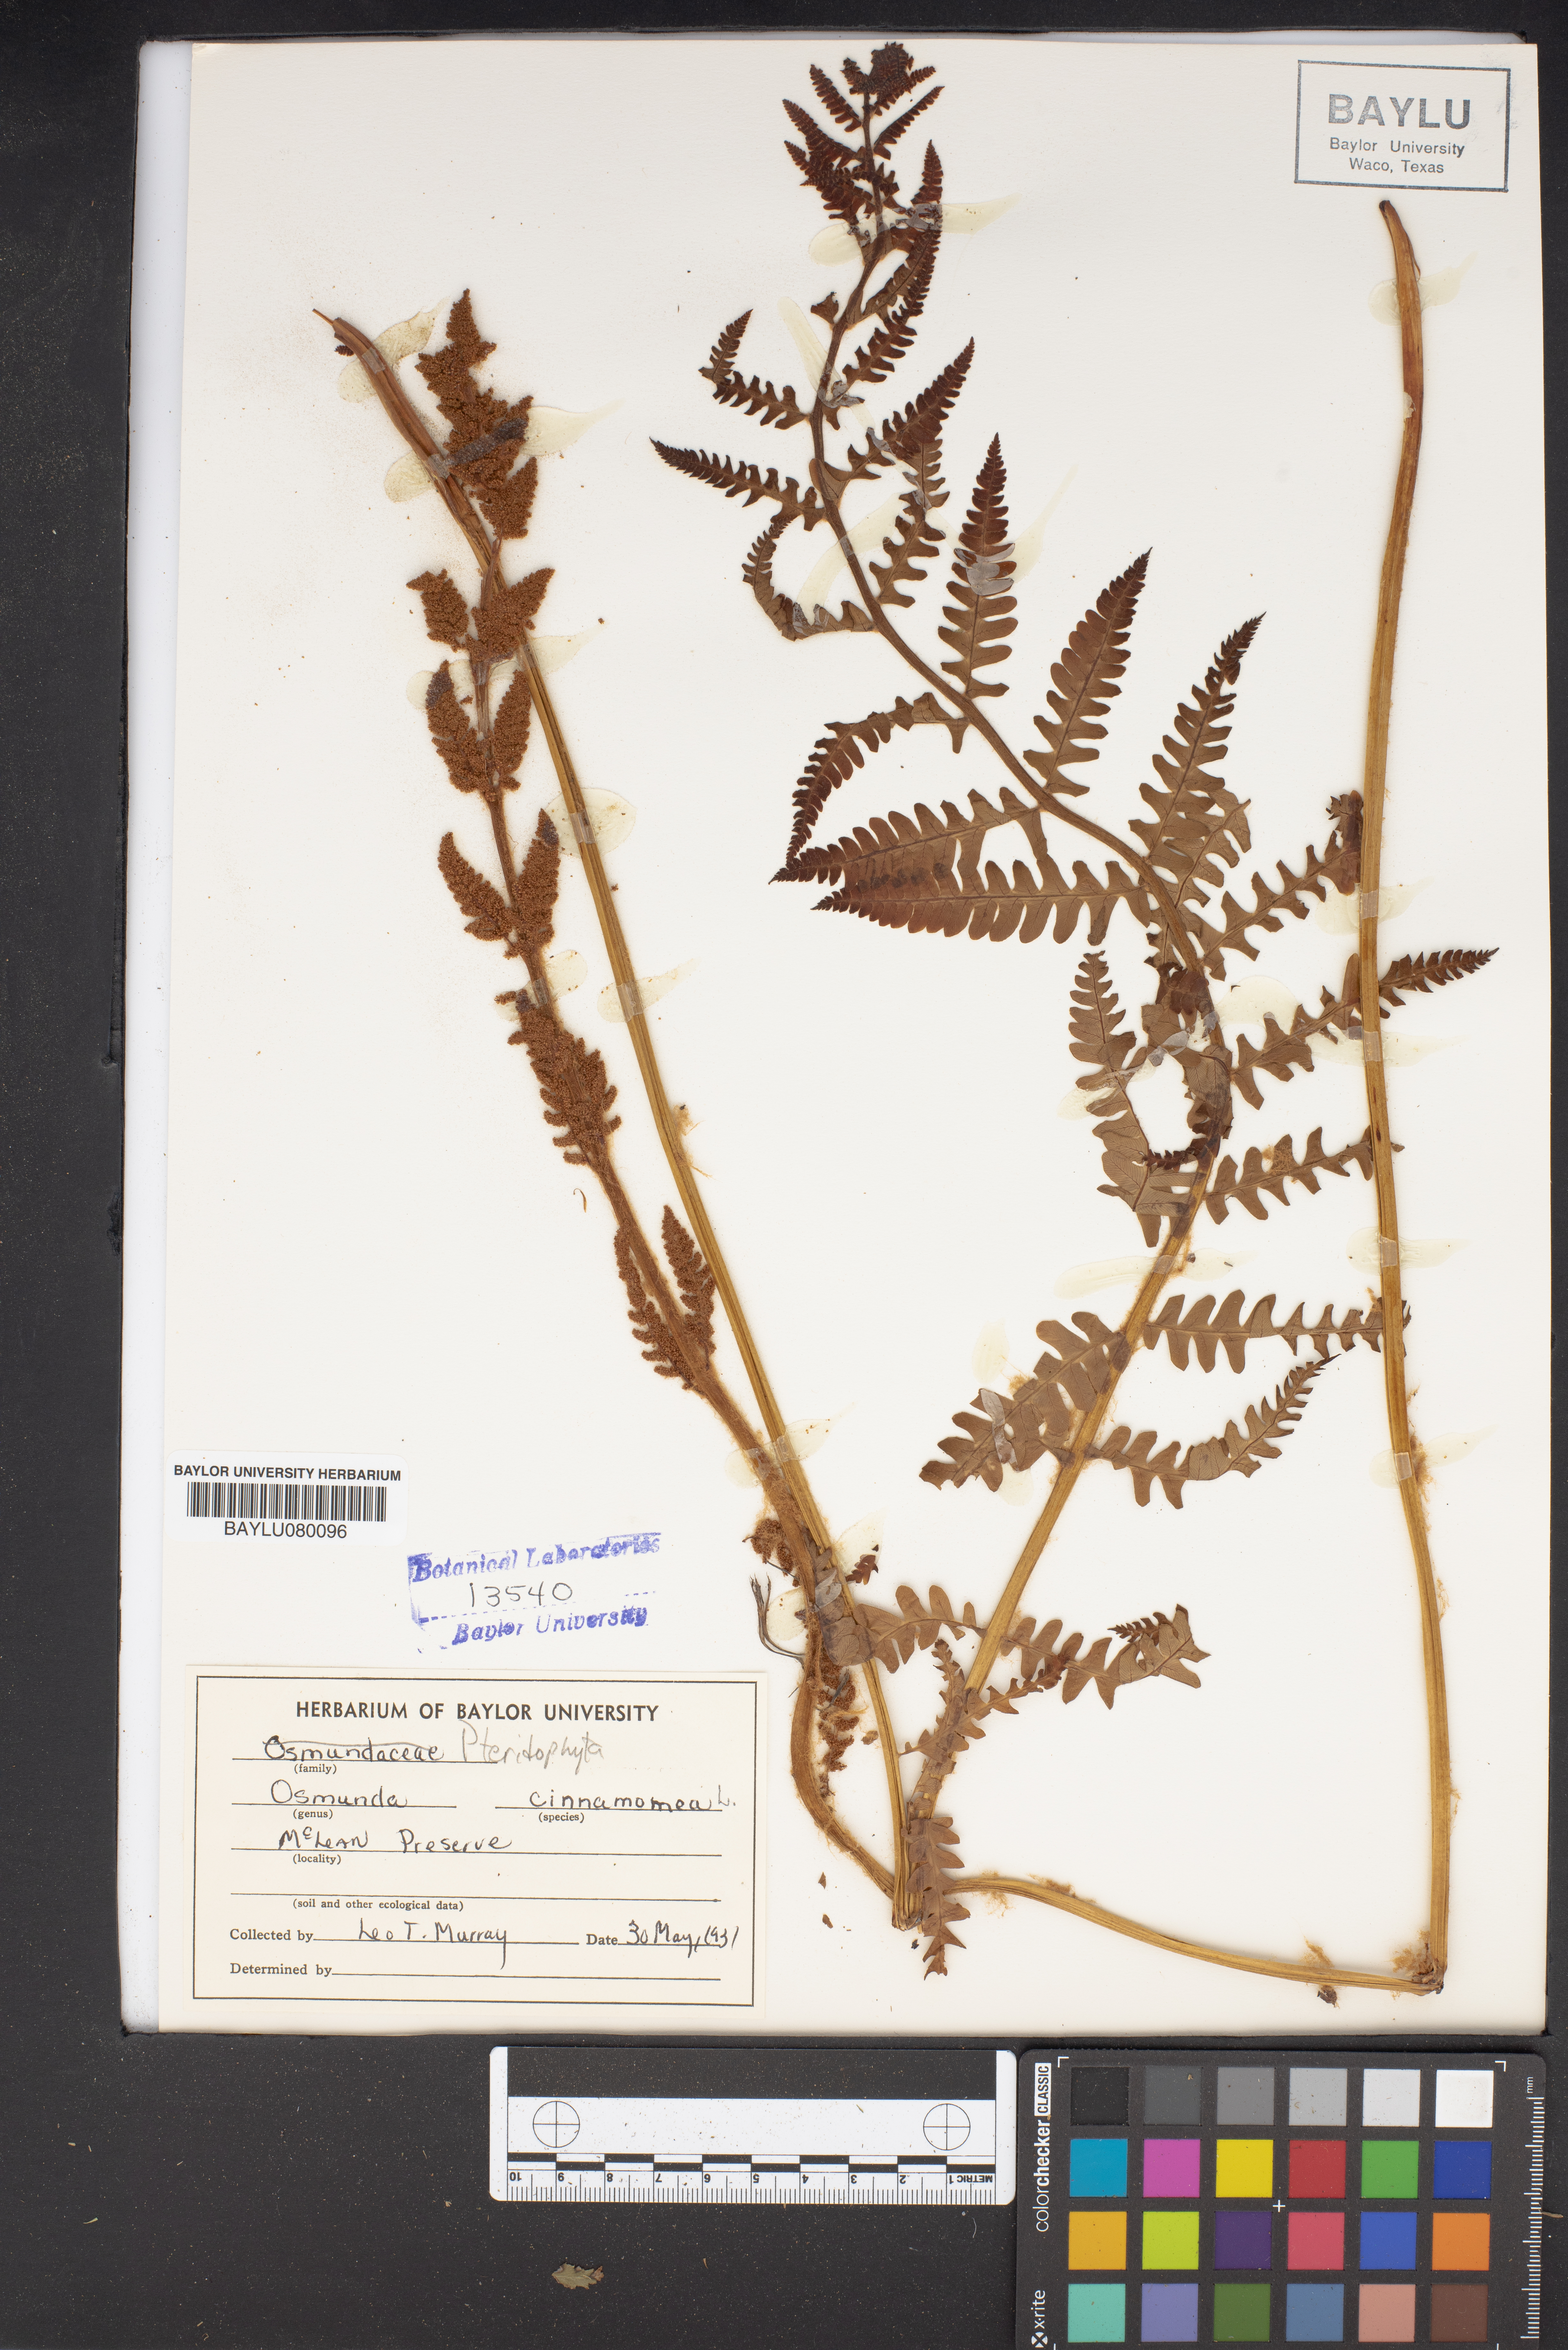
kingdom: Plantae
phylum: Tracheophyta
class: Polypodiopsida
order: Osmundales
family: Osmundaceae
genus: Osmundastrum
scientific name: Osmundastrum cinnamomeum
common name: Cinnamon fern
